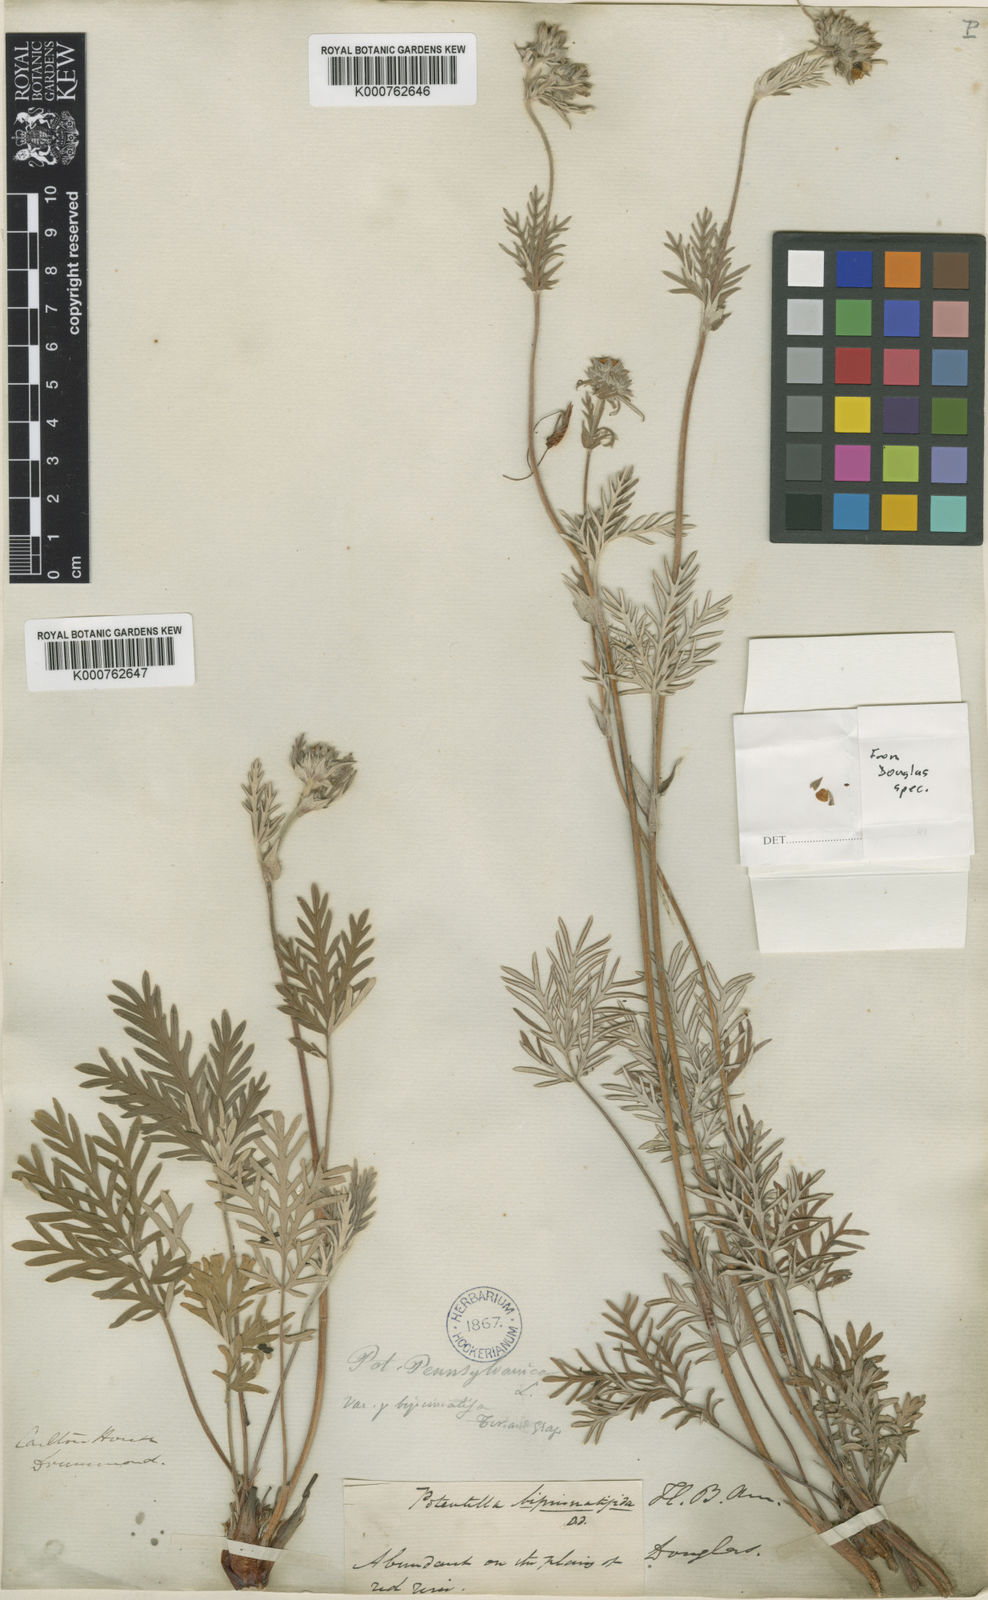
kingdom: Plantae
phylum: Tracheophyta
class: Magnoliopsida
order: Rosales
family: Rosaceae
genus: Potentilla
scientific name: Potentilla
